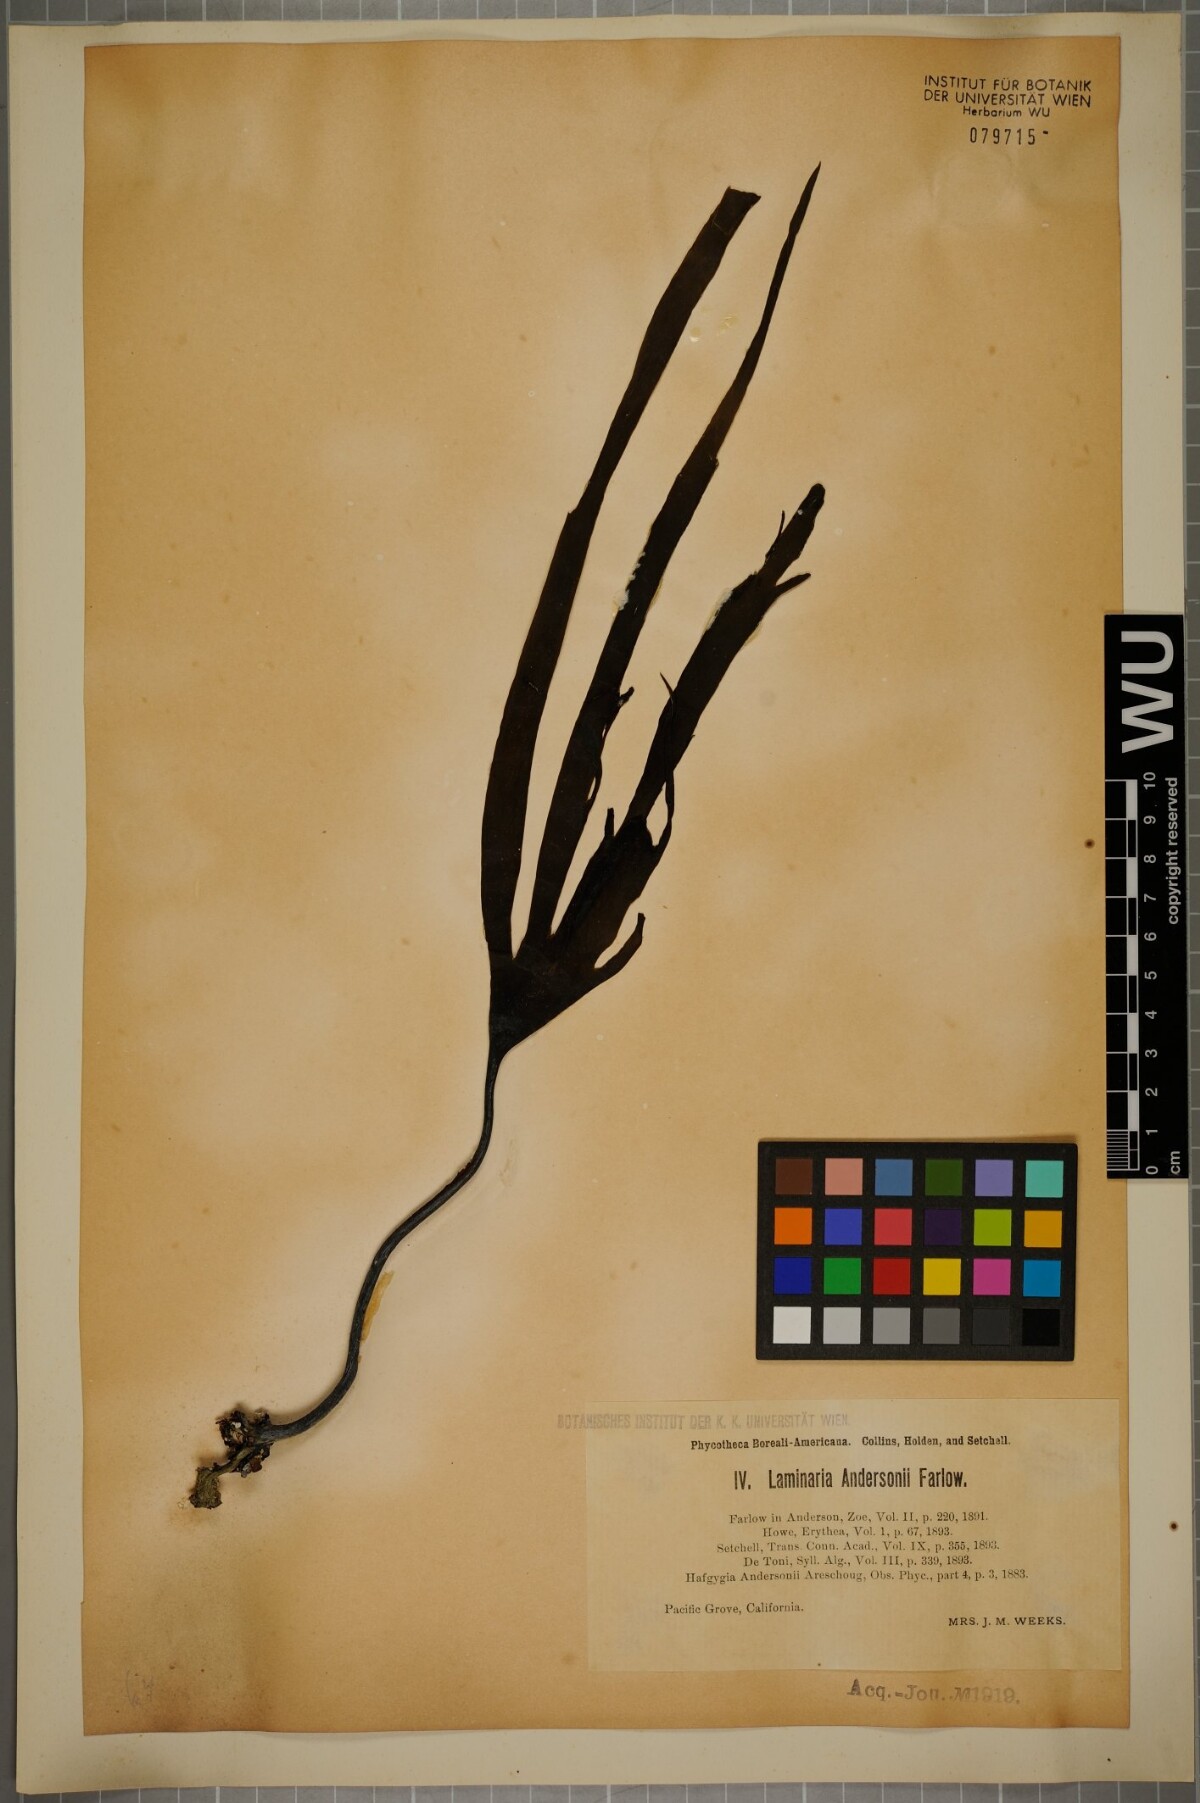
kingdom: Chromista
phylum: Ochrophyta
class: Phaeophyceae
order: Laminariales
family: Laminariaceae
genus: Laminaria
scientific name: Laminaria dentigera
